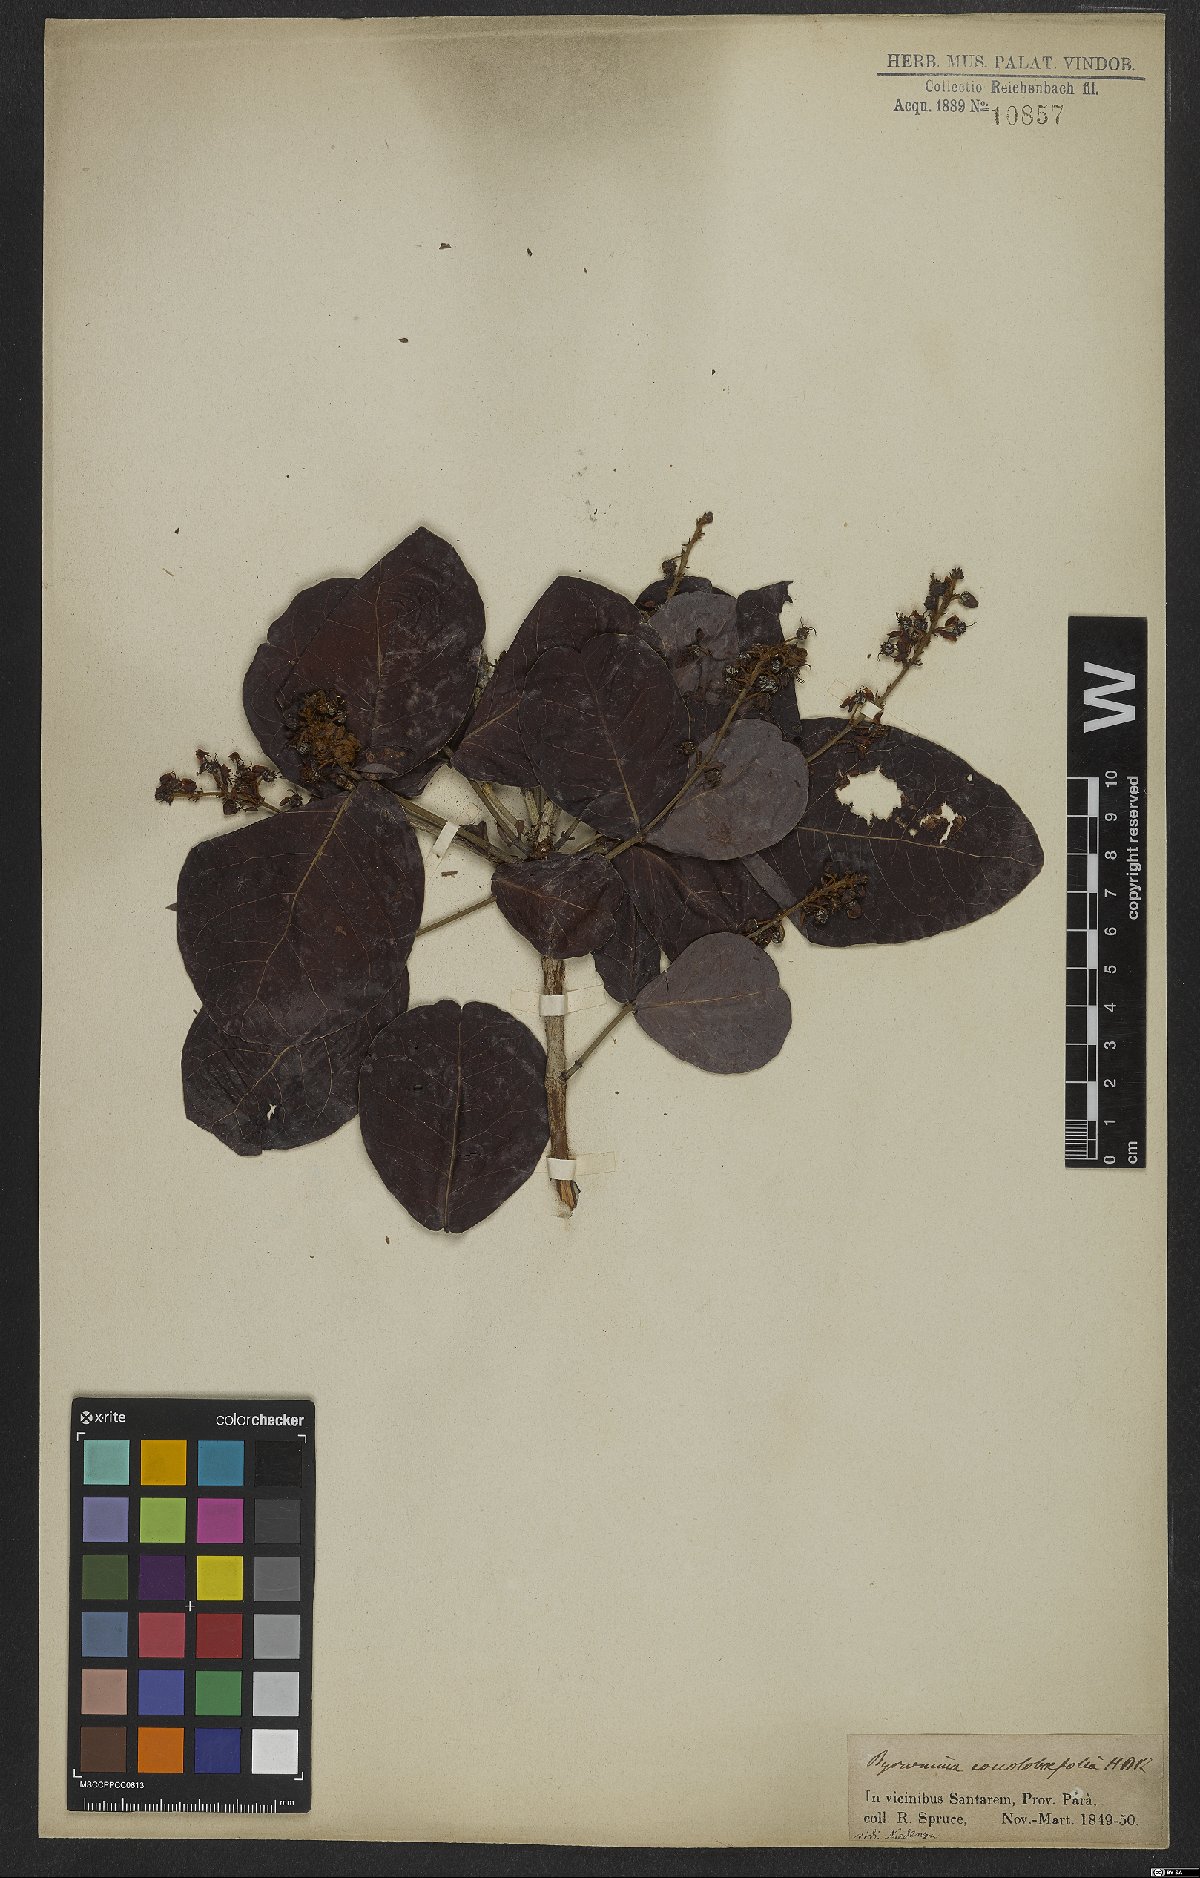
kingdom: Plantae
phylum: Tracheophyta
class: Magnoliopsida
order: Malpighiales
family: Malpighiaceae
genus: Byrsonima
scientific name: Byrsonima coccolobifolia
